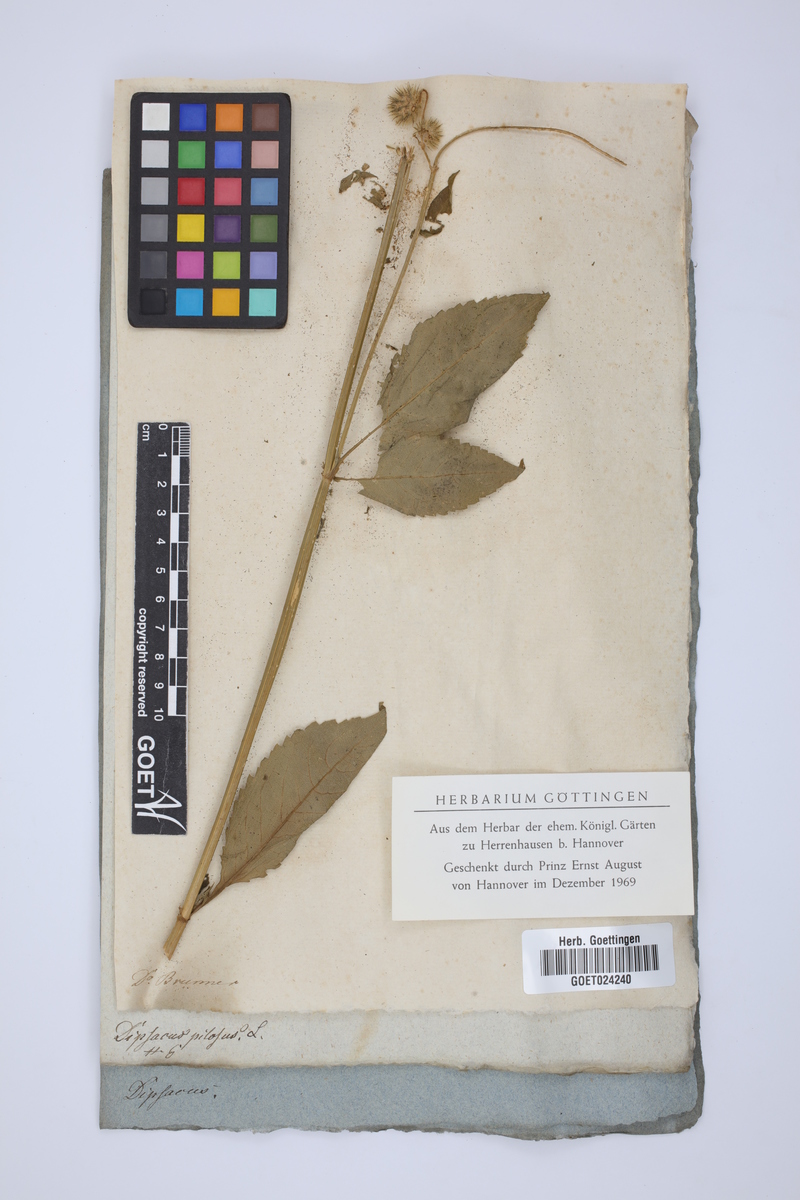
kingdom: Plantae
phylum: Tracheophyta
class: Magnoliopsida
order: Dipsacales
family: Caprifoliaceae
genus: Dipsacus
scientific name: Dipsacus pilosus
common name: Small teasel
